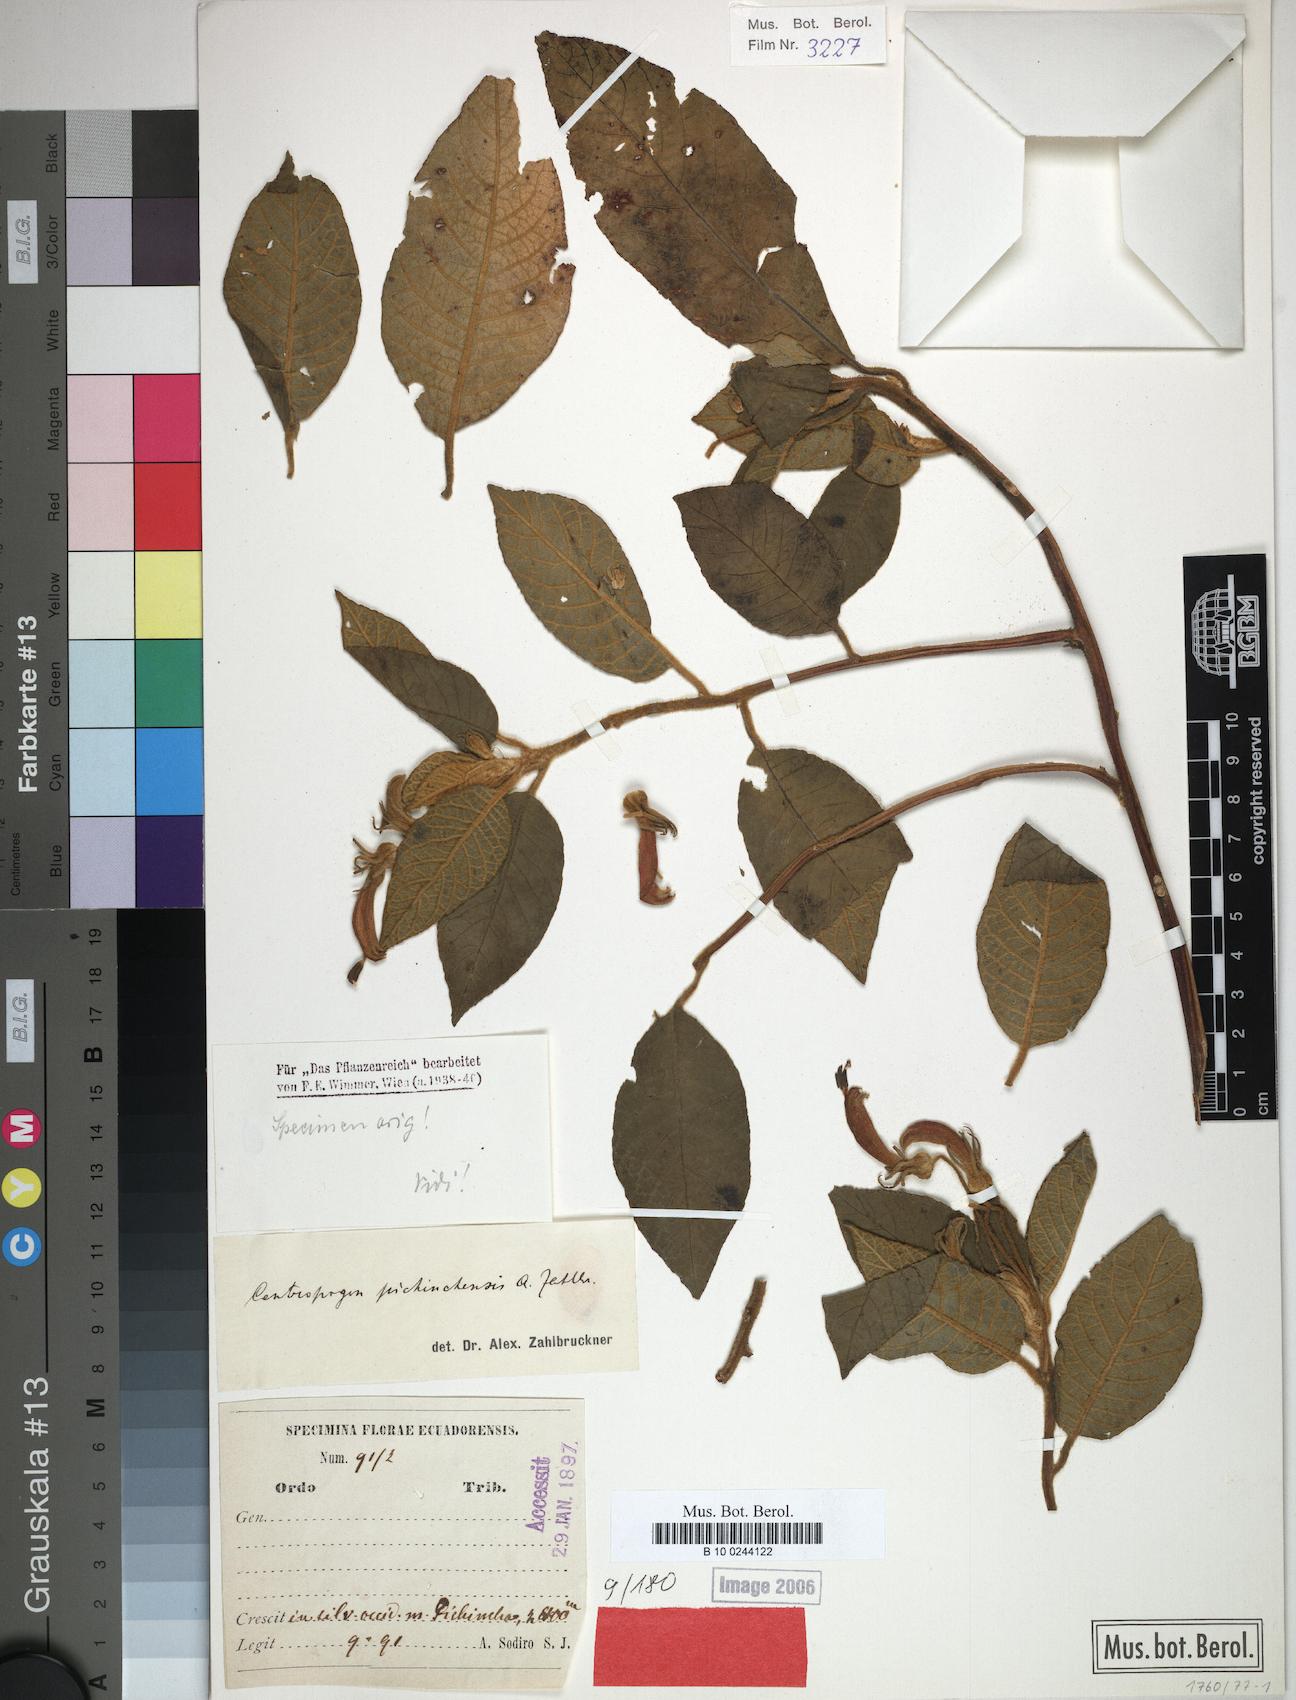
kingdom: Plantae
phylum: Tracheophyta
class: Magnoliopsida
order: Asterales
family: Campanulaceae
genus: Centropogon
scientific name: Centropogon pichinchensis
